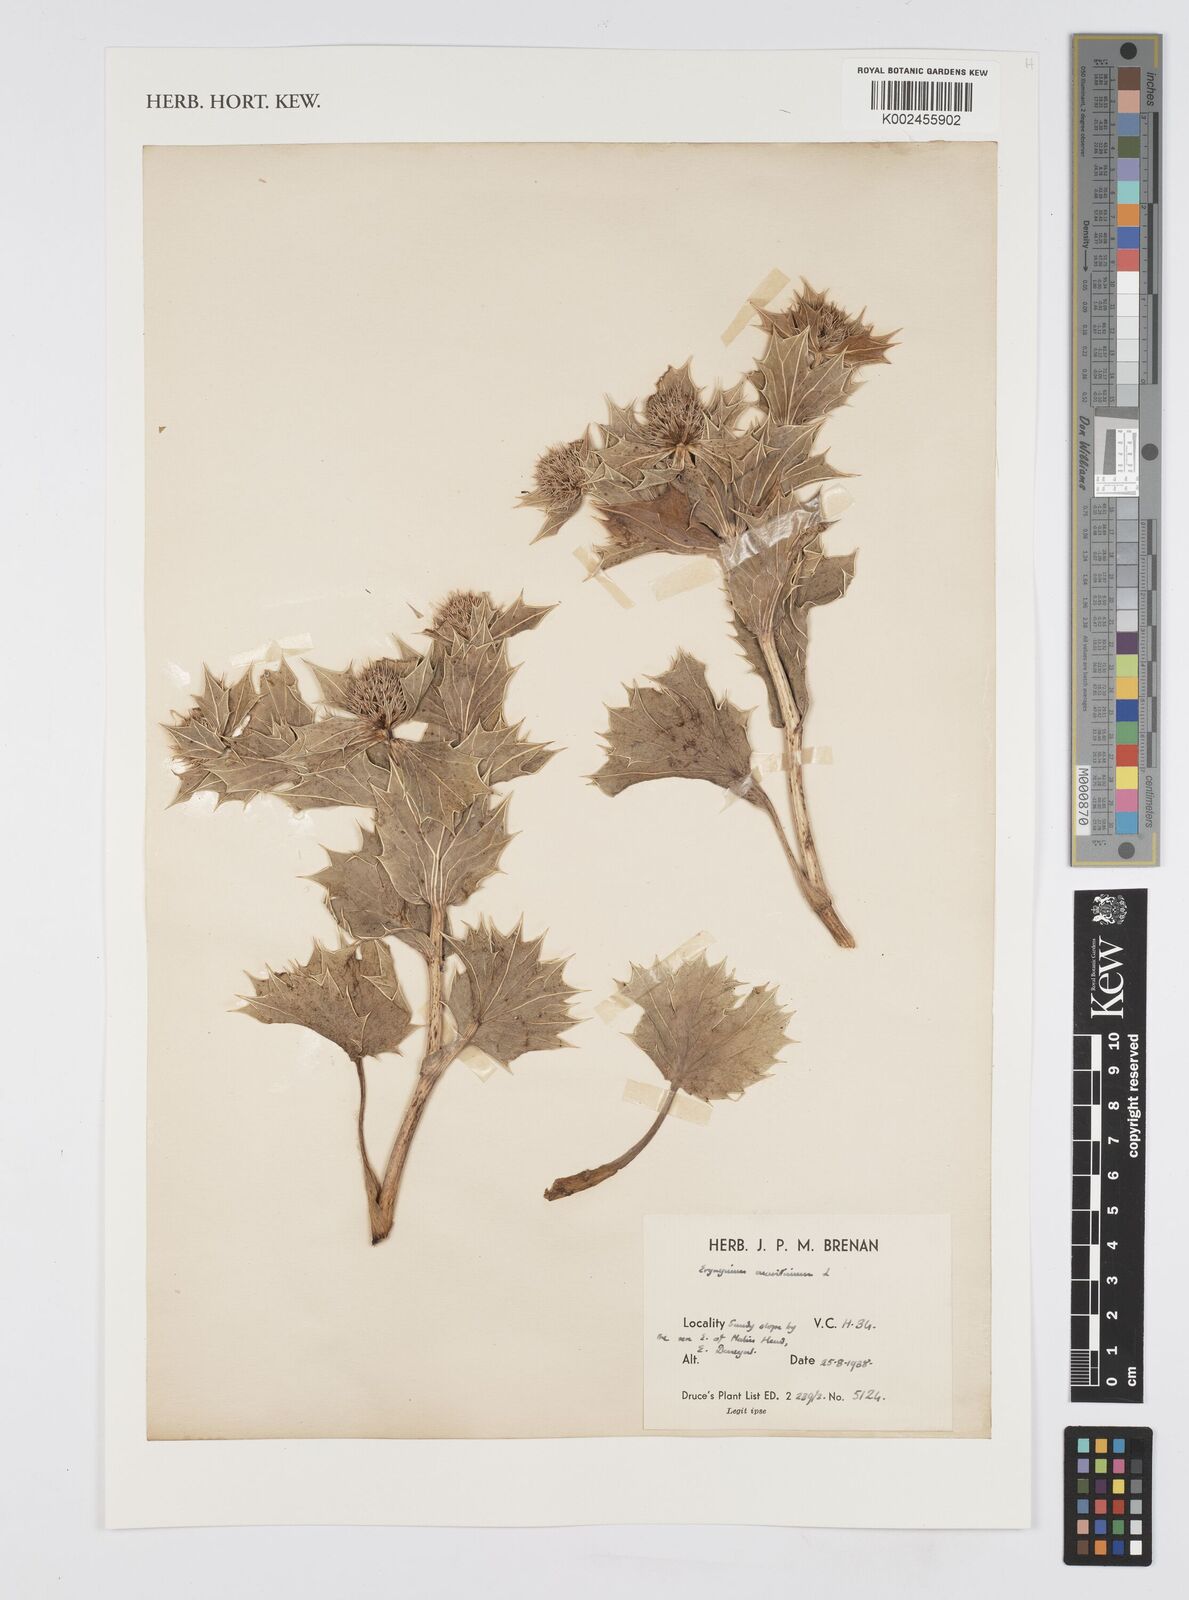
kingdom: Plantae
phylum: Tracheophyta
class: Magnoliopsida
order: Apiales
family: Apiaceae
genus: Eryngium
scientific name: Eryngium maritimum
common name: Sea-holly
